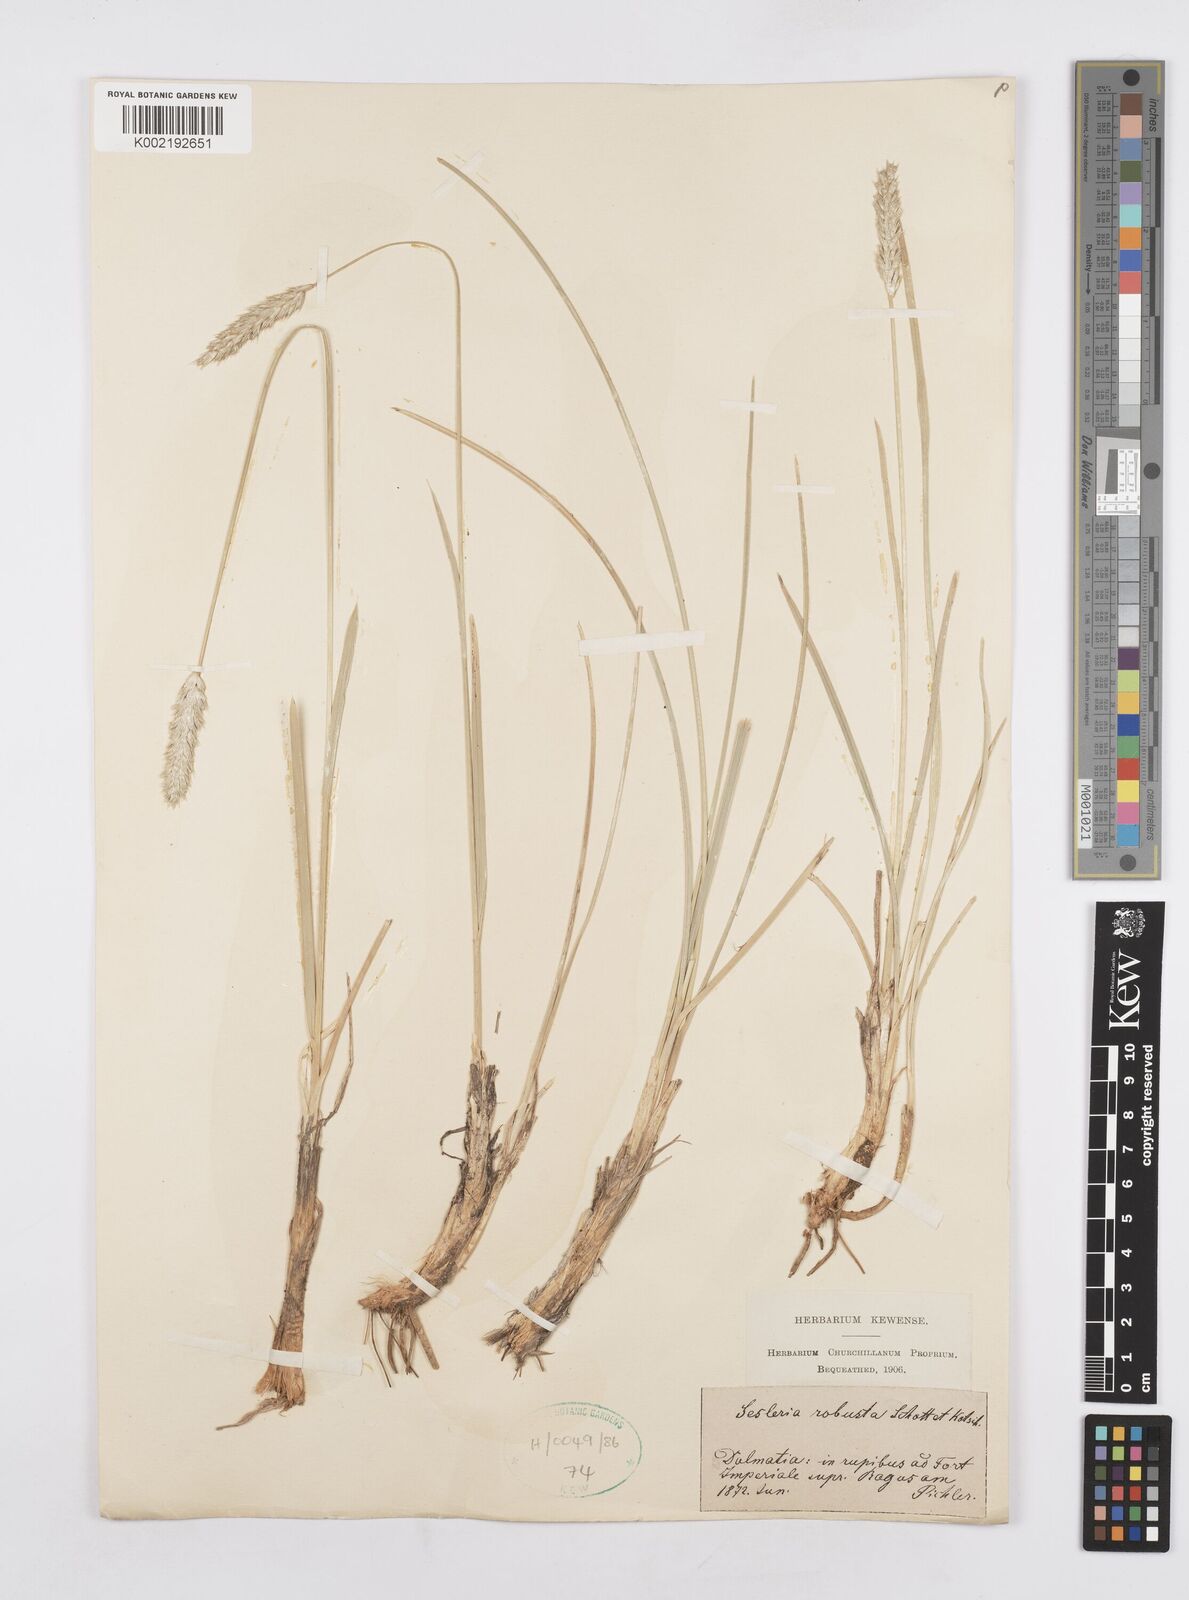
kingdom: Plantae
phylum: Tracheophyta
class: Liliopsida
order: Poales
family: Poaceae
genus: Sesleria
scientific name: Sesleria robusta
